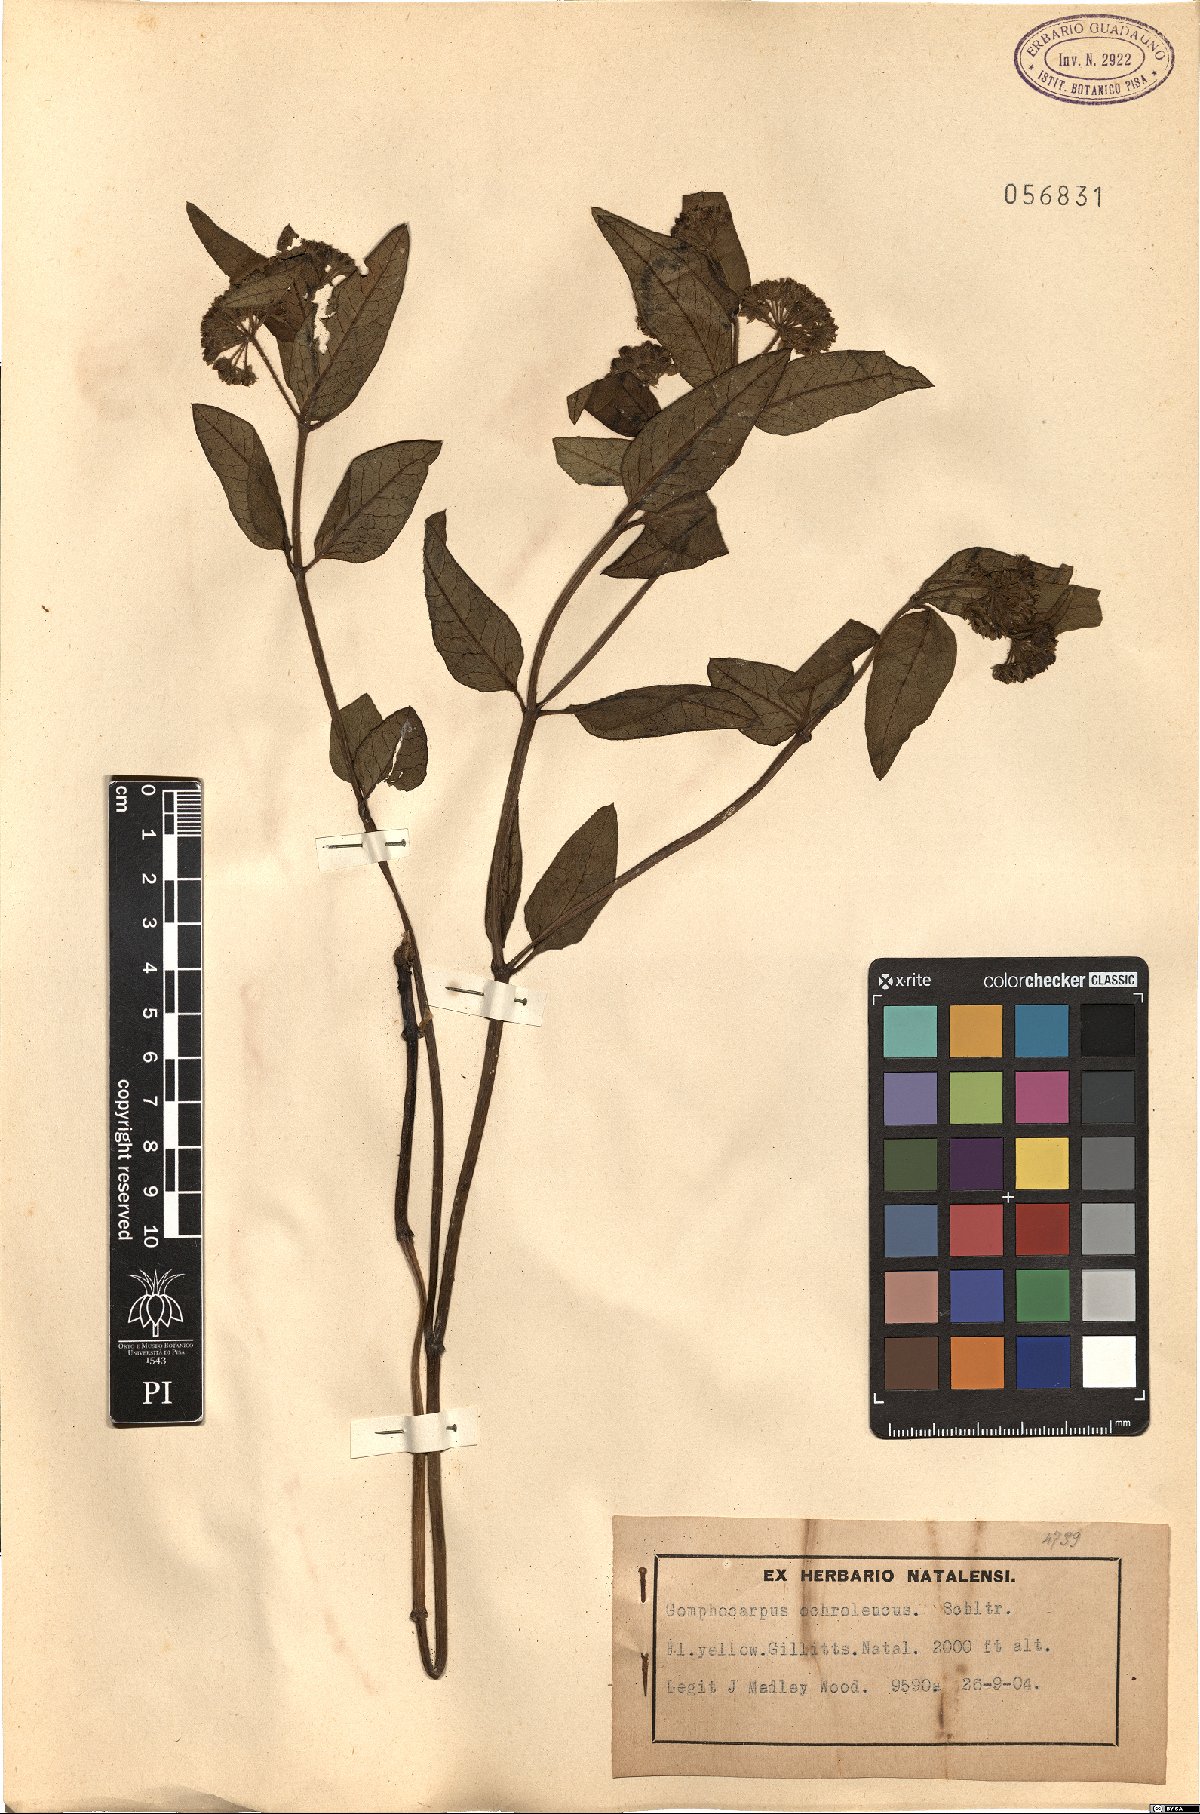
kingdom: Plantae
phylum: Tracheophyta
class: Magnoliopsida
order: Gentianales
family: Apocynaceae
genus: Xysmalobium
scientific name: Xysmalobium gerrardii
